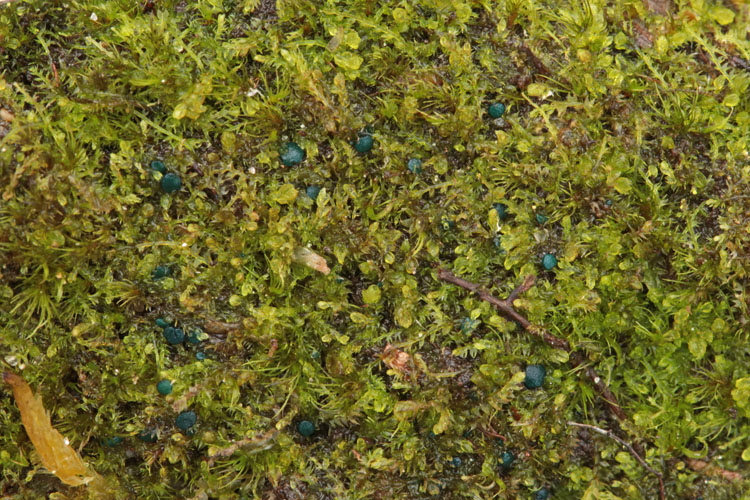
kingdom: Fungi
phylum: Ascomycota
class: Leotiomycetes
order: Leotiales
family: Mniaeciaceae
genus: Mniaecia
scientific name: Mniaecia jungermanniae
